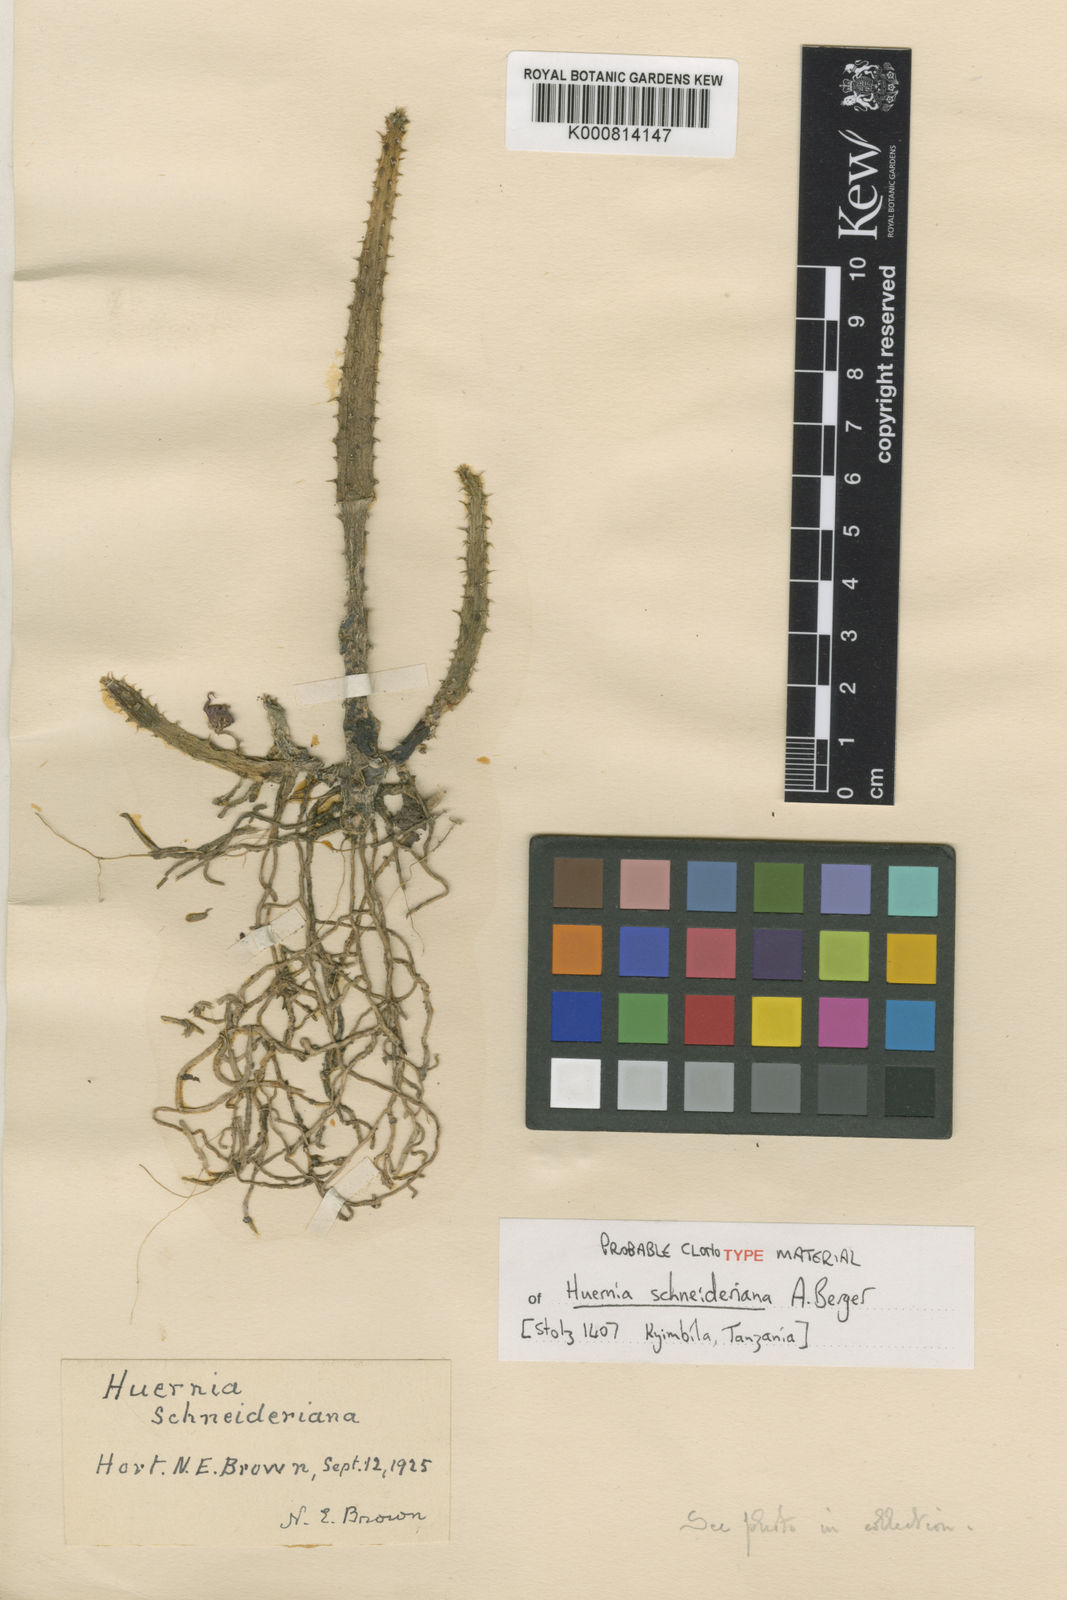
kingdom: Plantae
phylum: Tracheophyta
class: Magnoliopsida
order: Gentianales
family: Apocynaceae
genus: Huernia
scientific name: Huernia schneideriana
